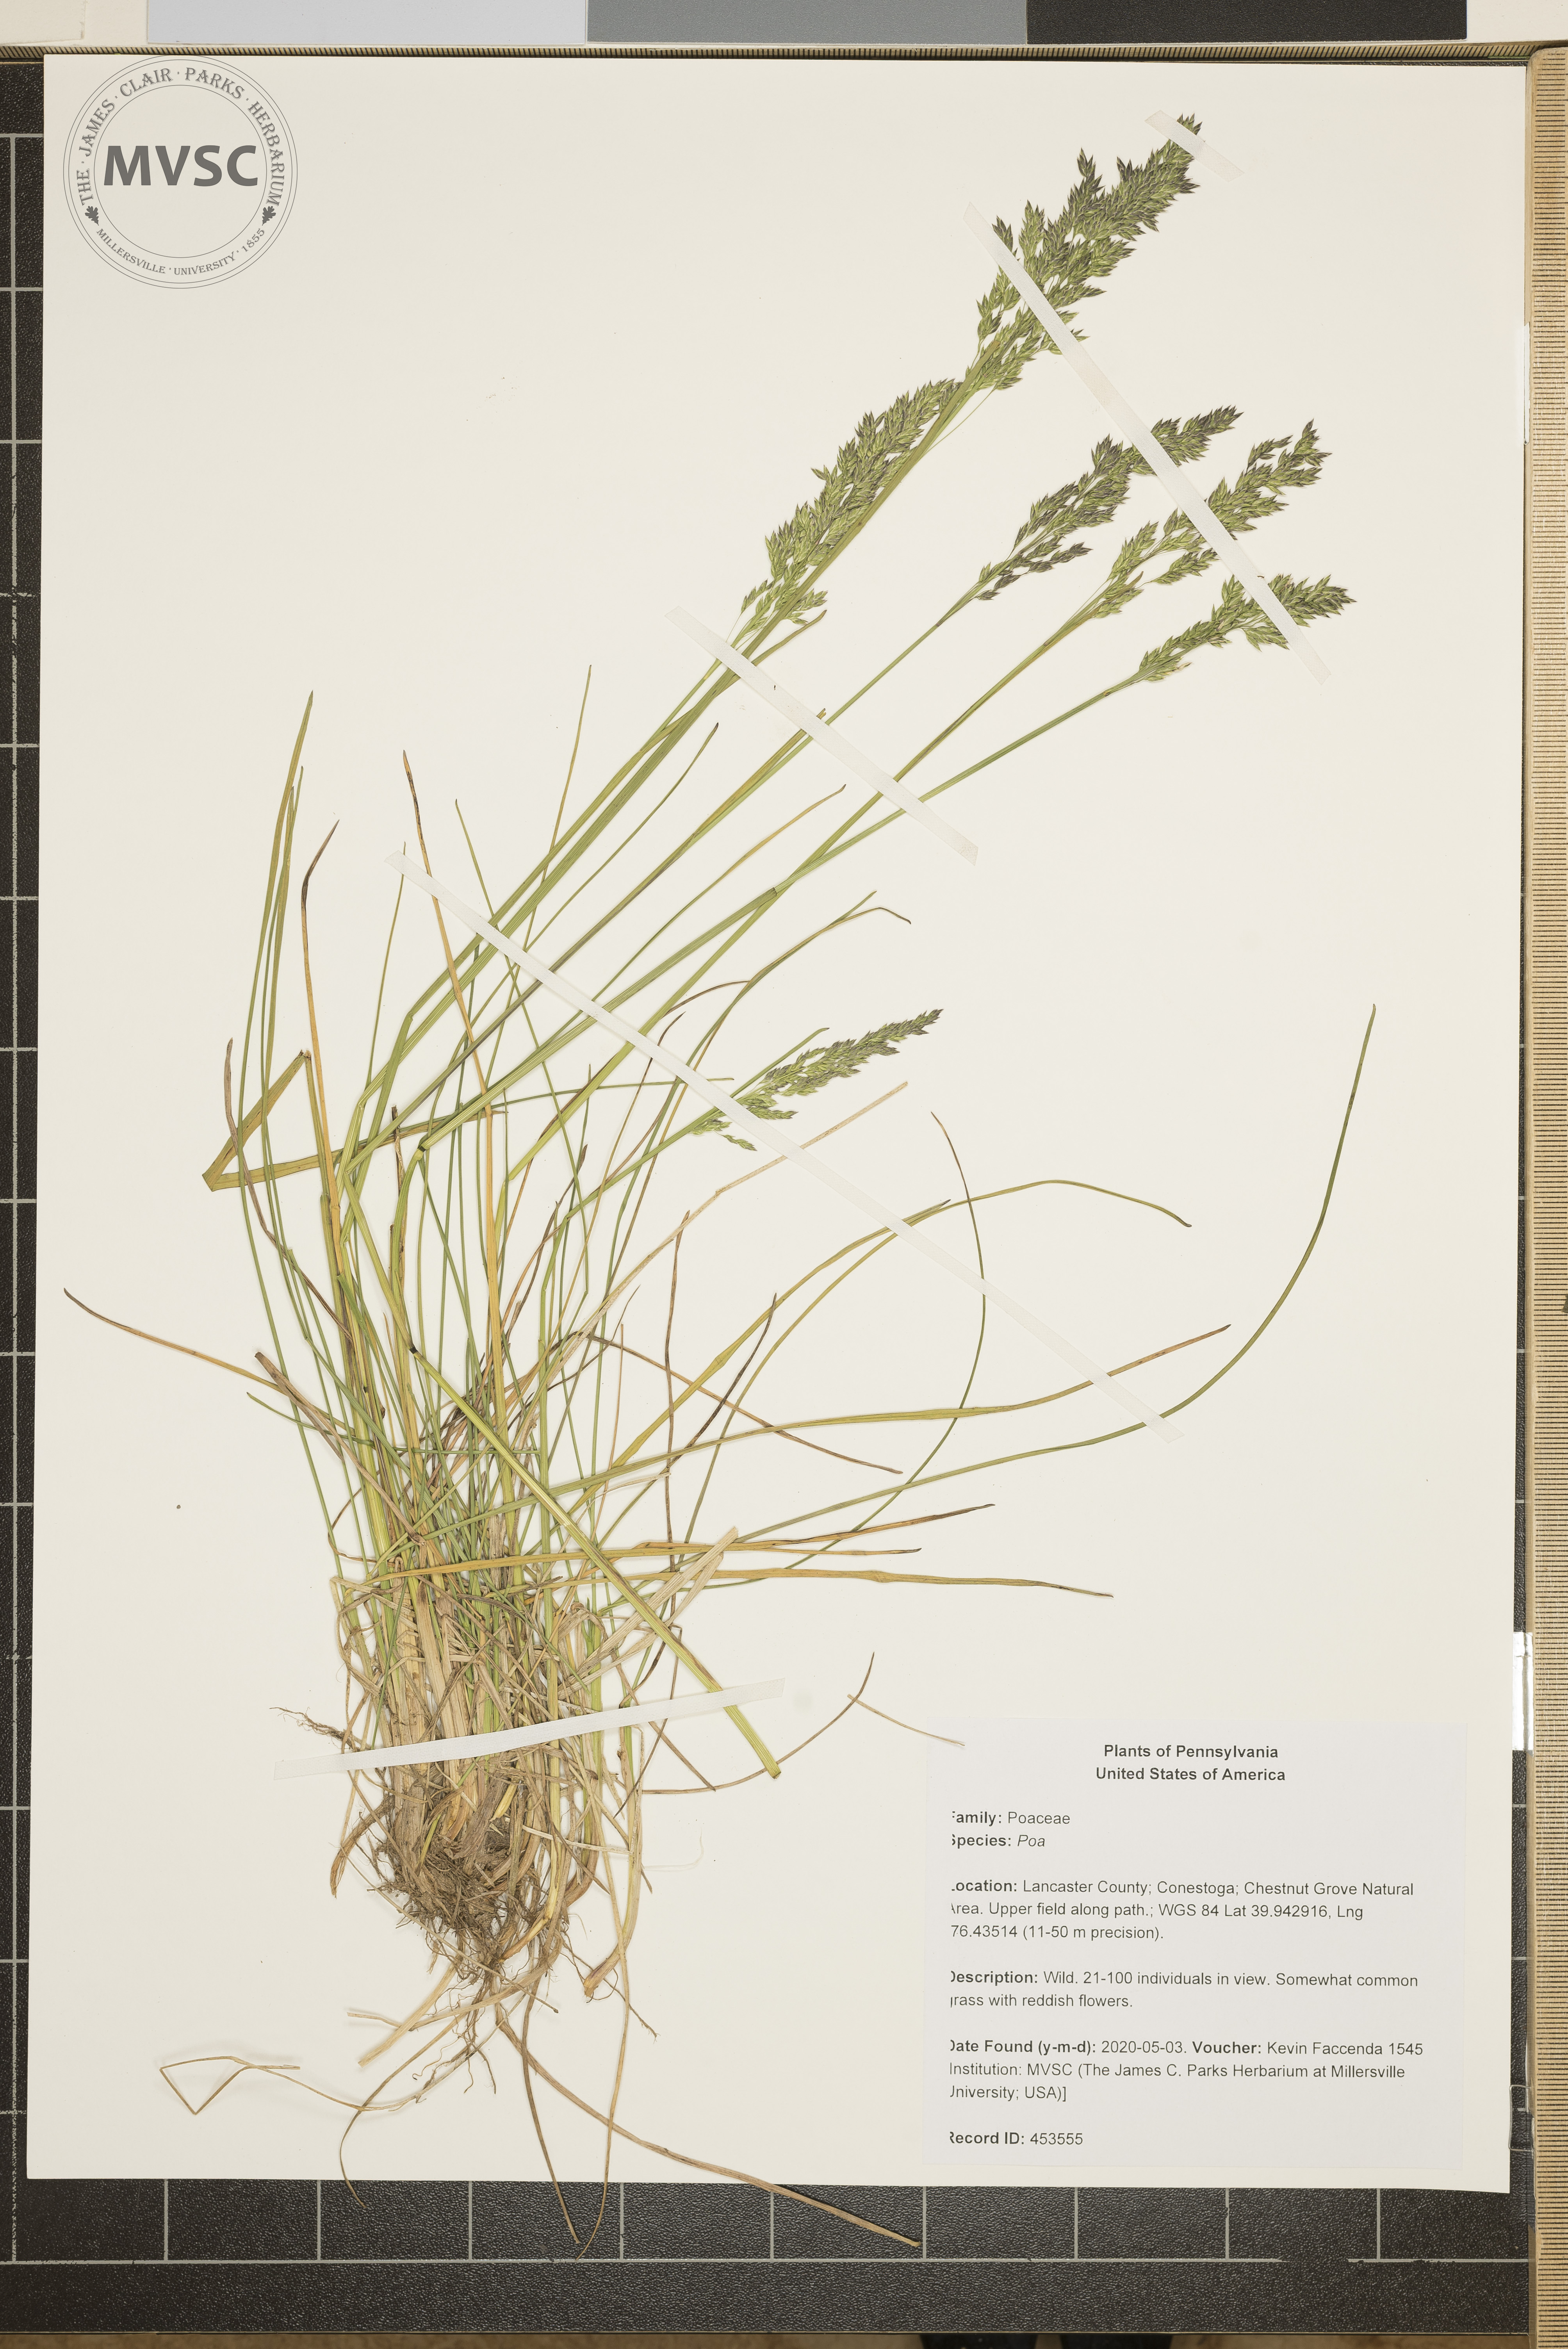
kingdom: Plantae
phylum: Tracheophyta
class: Liliopsida
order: Poales
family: Poaceae
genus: Poa
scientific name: Poa
